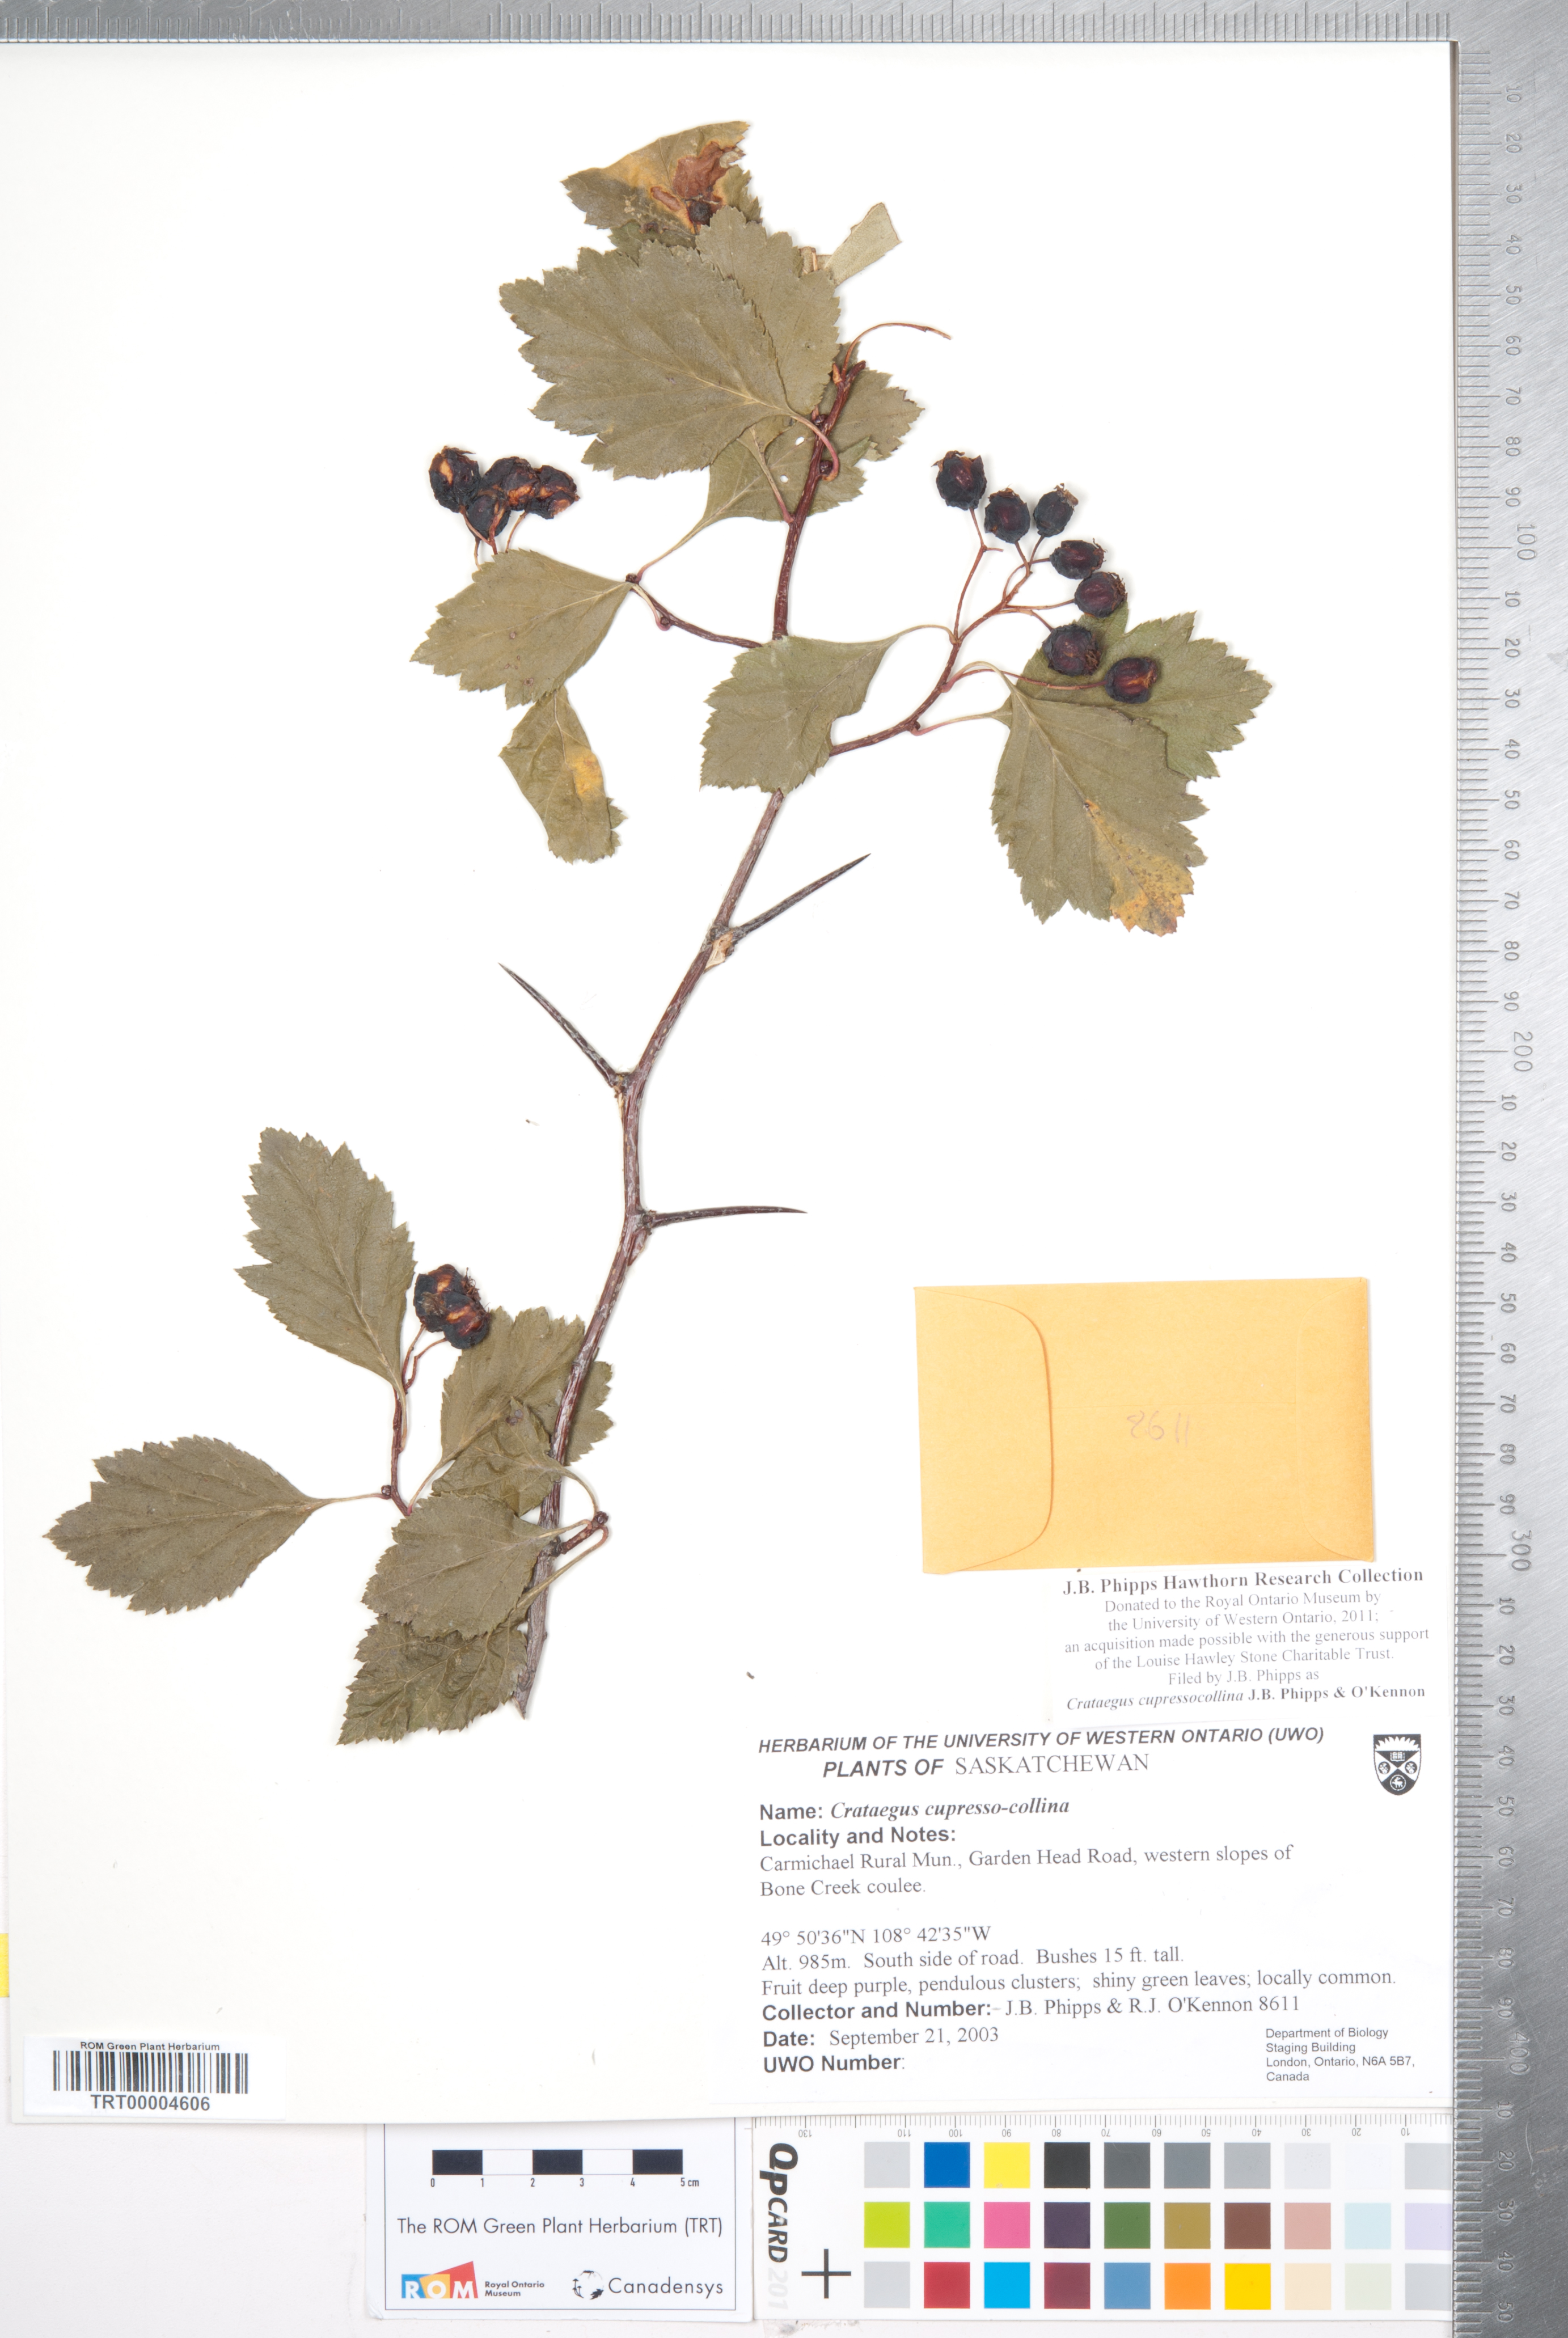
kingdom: Plantae
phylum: Tracheophyta
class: Magnoliopsida
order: Rosales
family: Rosaceae
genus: Crataegus
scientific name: Crataegus cupressocollina
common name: Cypress hills hawthorn
